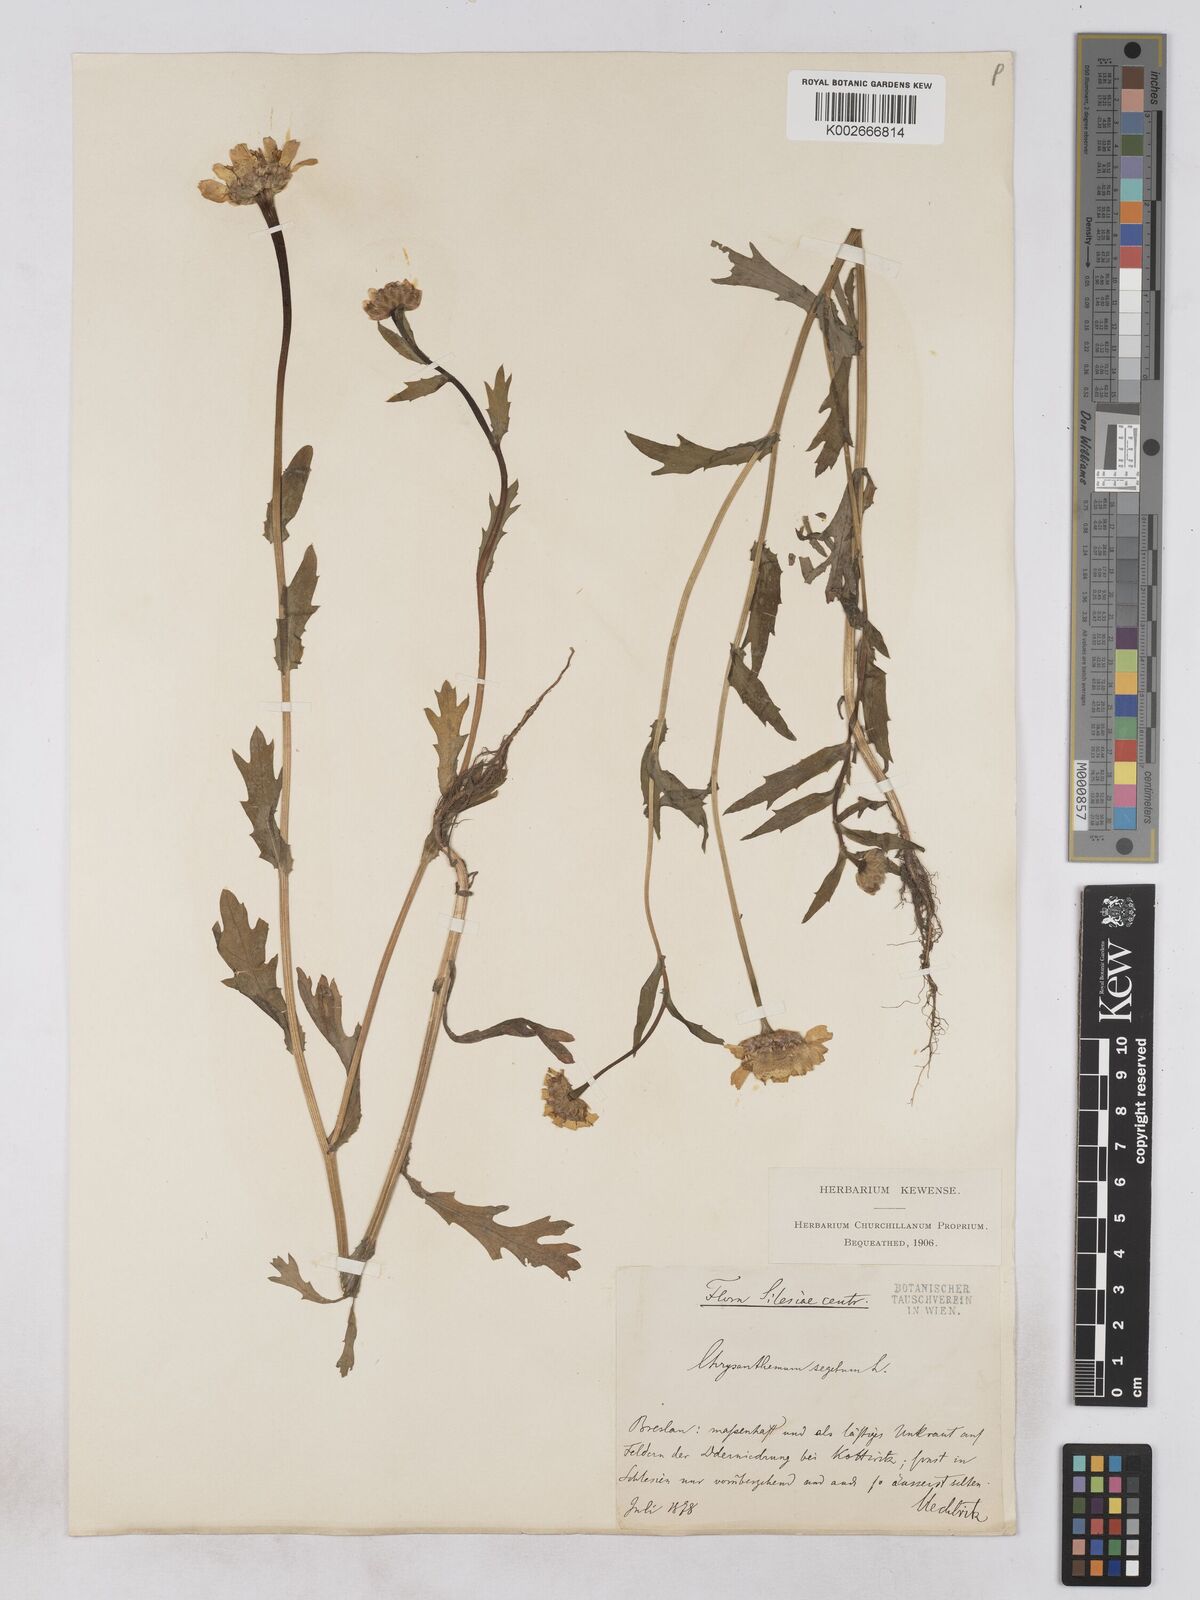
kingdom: Plantae
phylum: Tracheophyta
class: Magnoliopsida
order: Asterales
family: Asteraceae
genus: Glebionis
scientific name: Glebionis segetum
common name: Corndaisy
